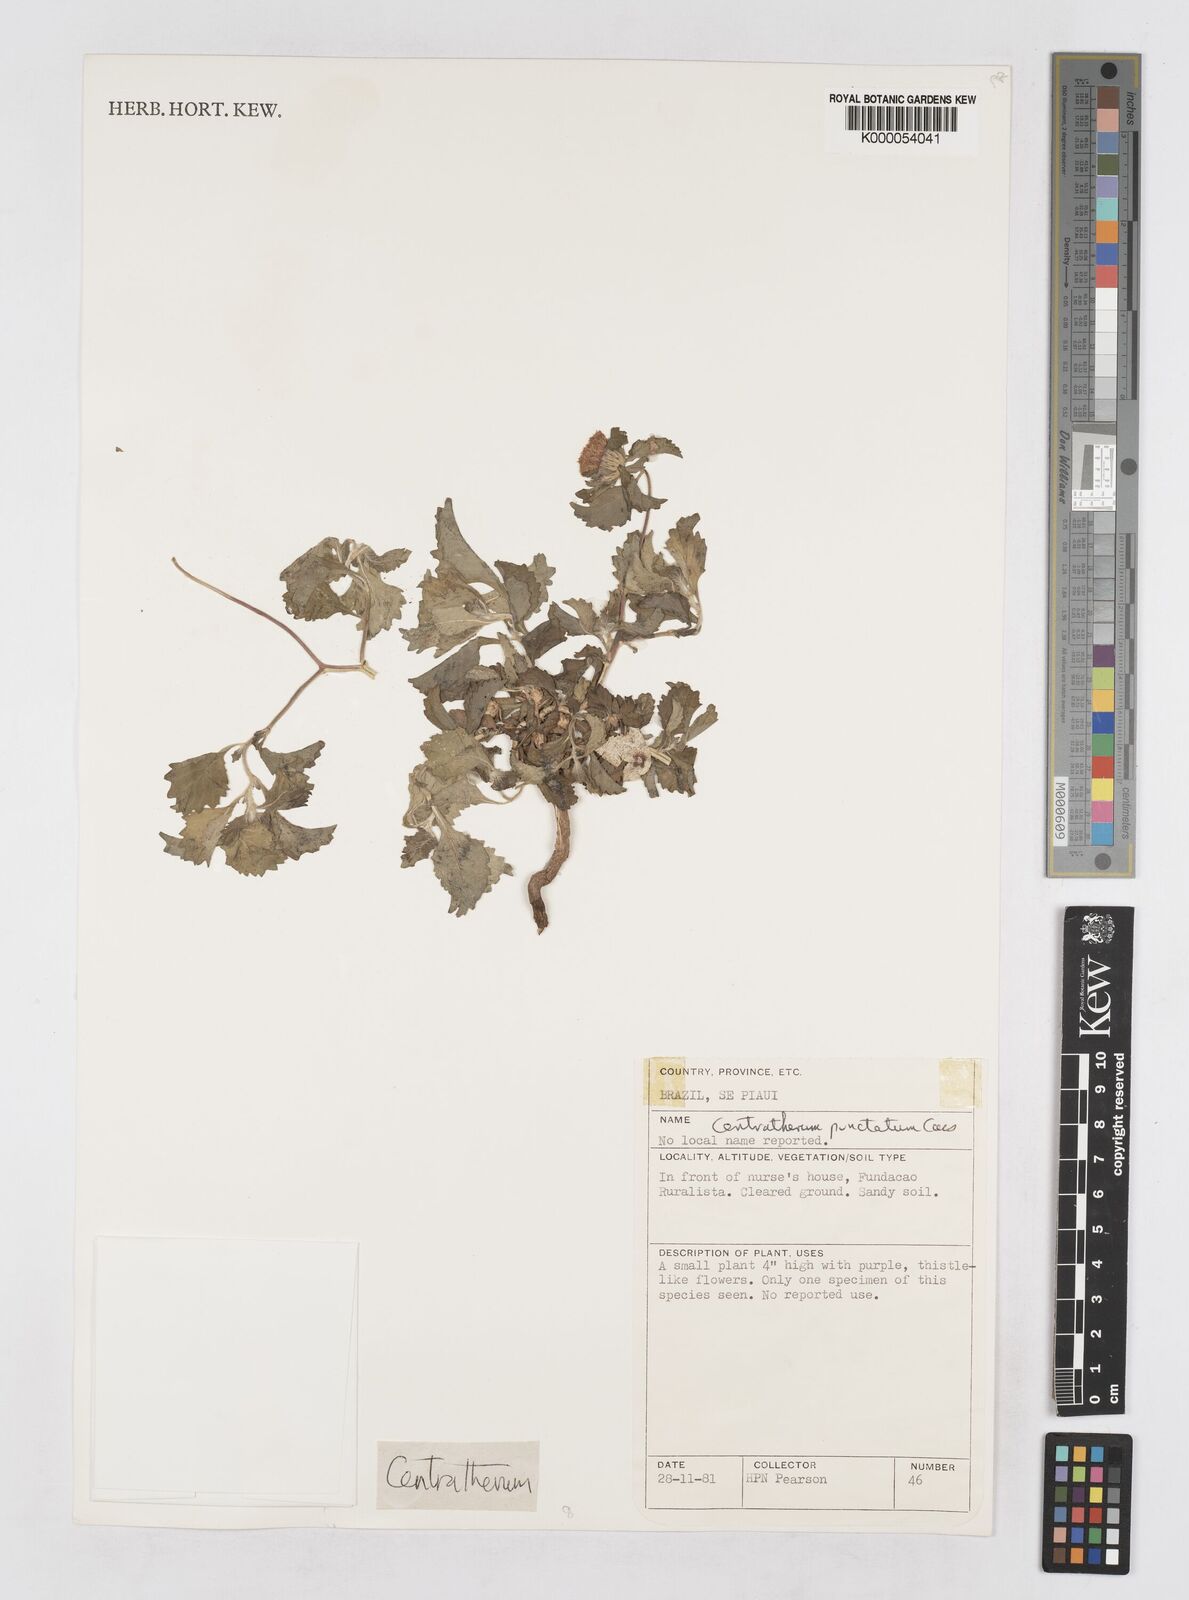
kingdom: Plantae
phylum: Tracheophyta
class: Magnoliopsida
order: Asterales
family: Asteraceae
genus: Centratherum
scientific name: Centratherum punctatum
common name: Larkdaisy
